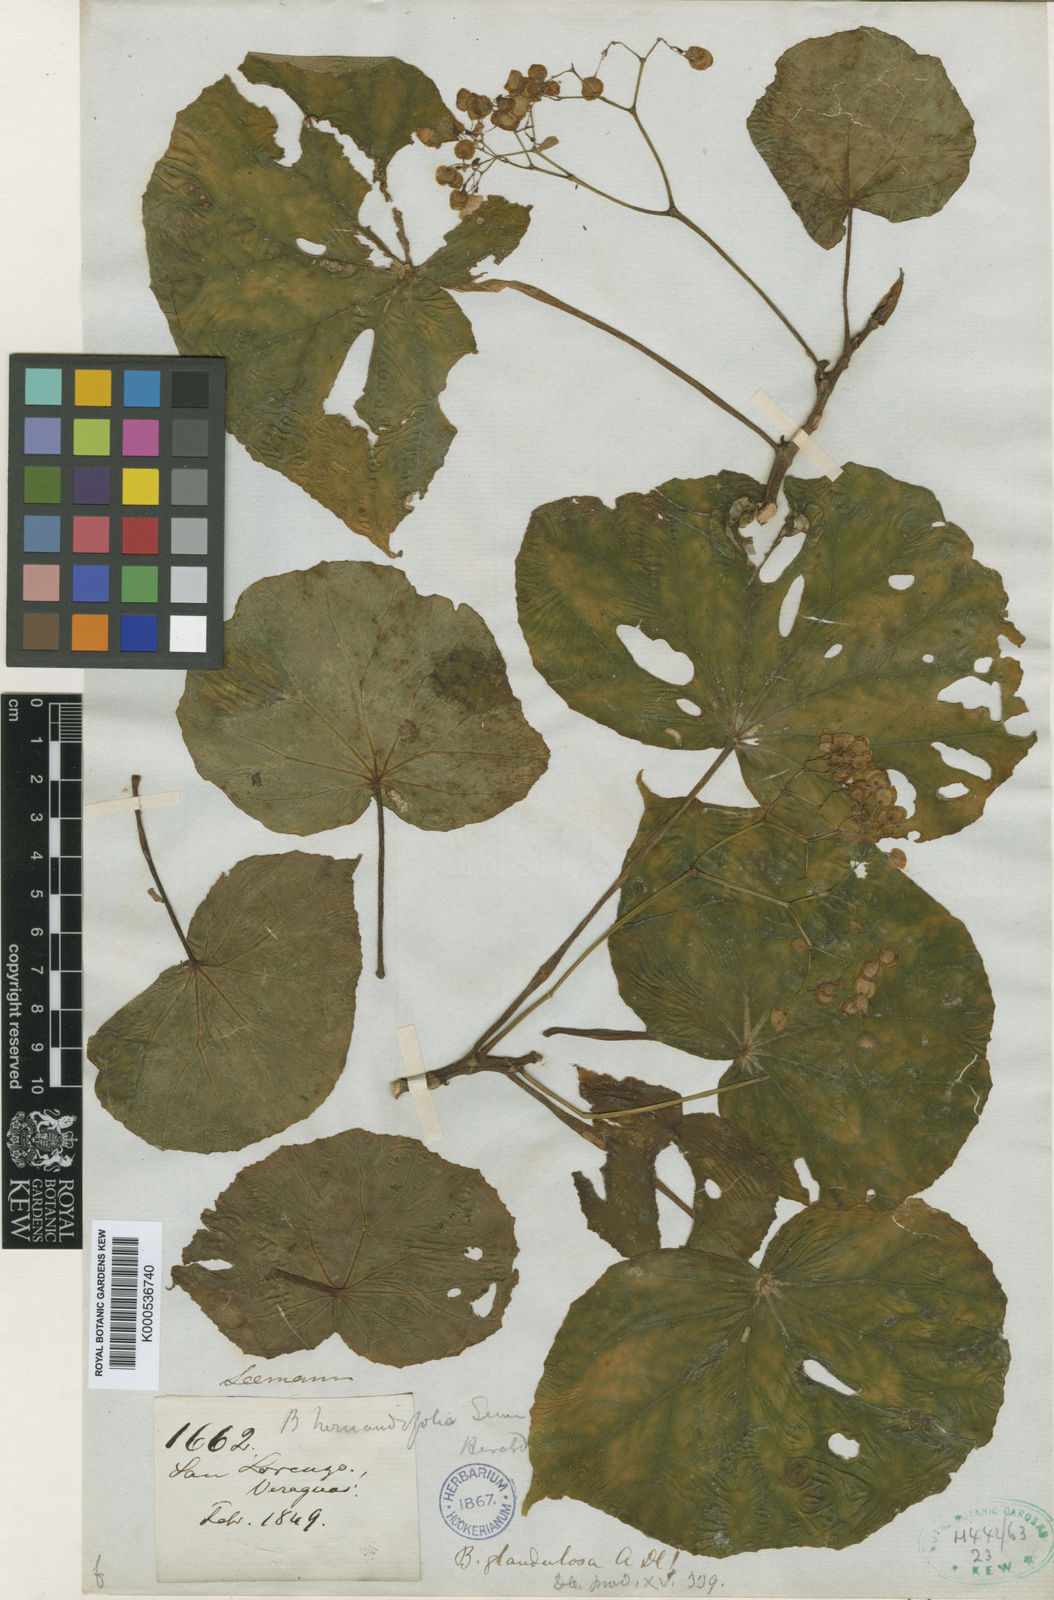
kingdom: Plantae
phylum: Tracheophyta
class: Magnoliopsida
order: Cucurbitales
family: Begoniaceae
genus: Begonia
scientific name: Begonia glandulosa
